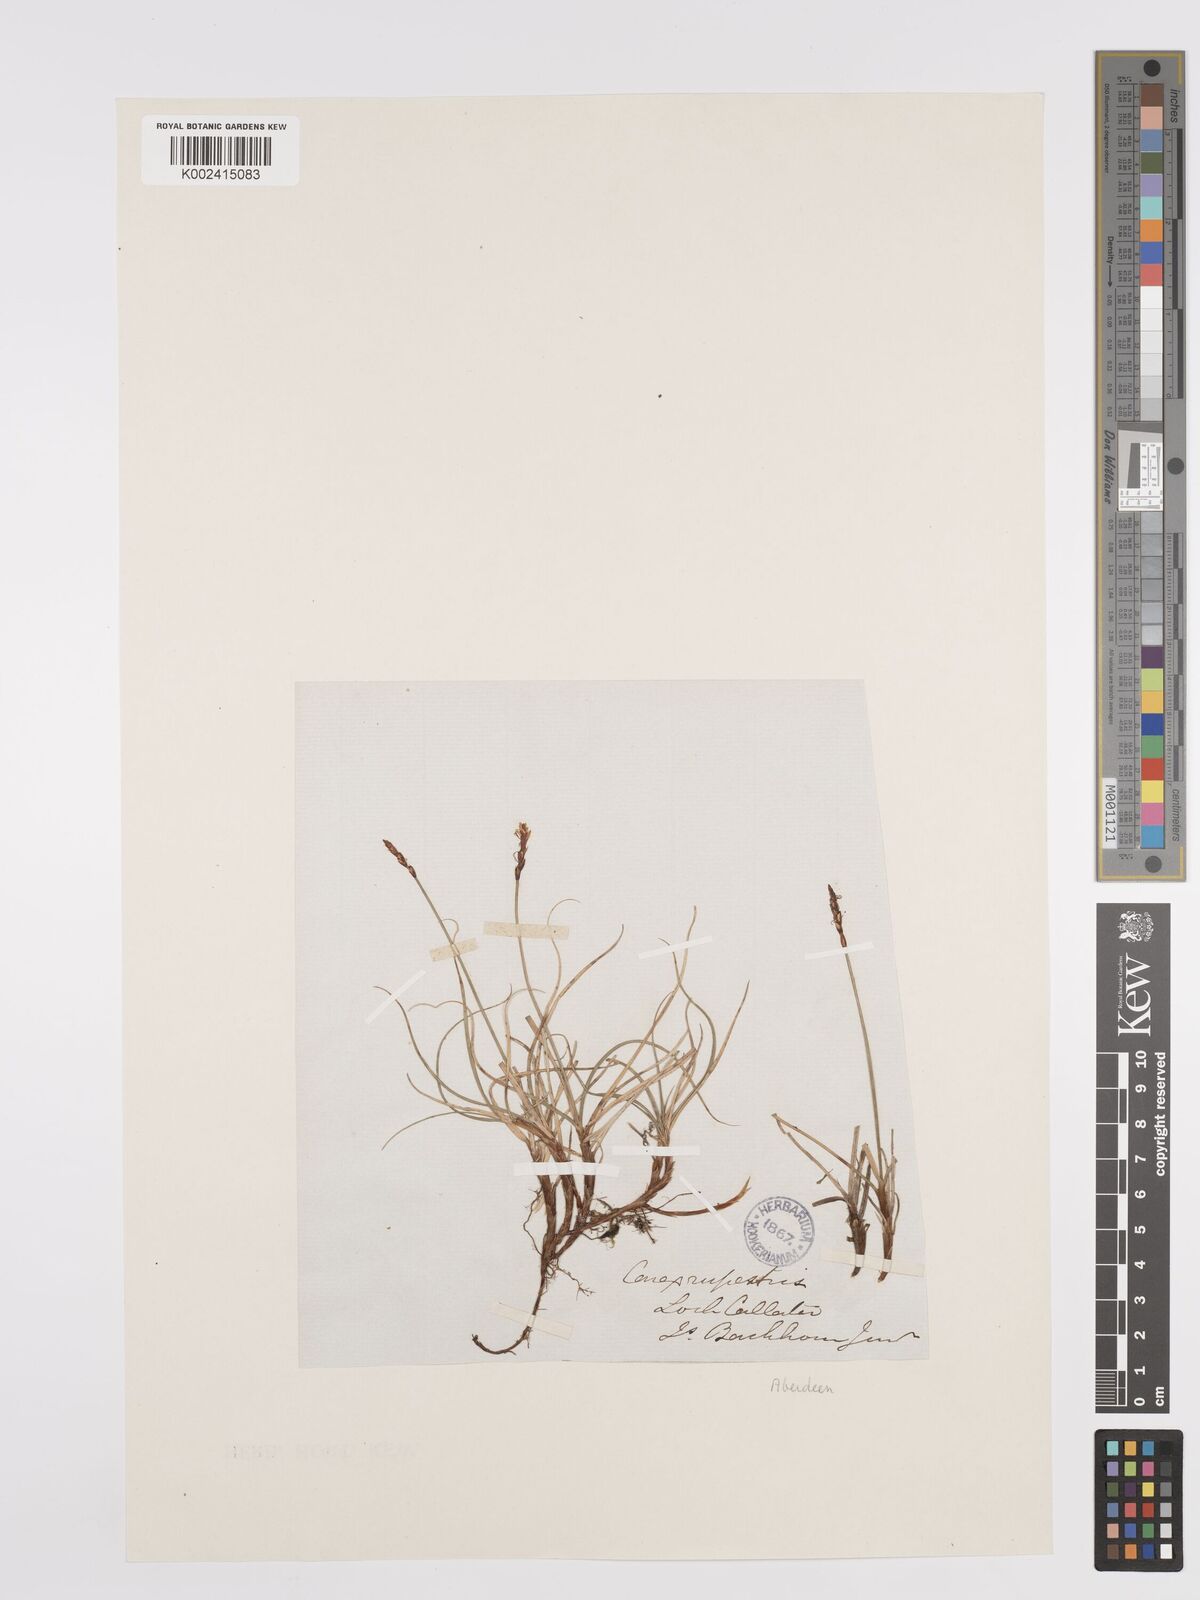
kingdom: Plantae
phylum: Tracheophyta
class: Liliopsida
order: Poales
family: Cyperaceae
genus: Carex
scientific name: Carex rupestris
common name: Rock sedge
